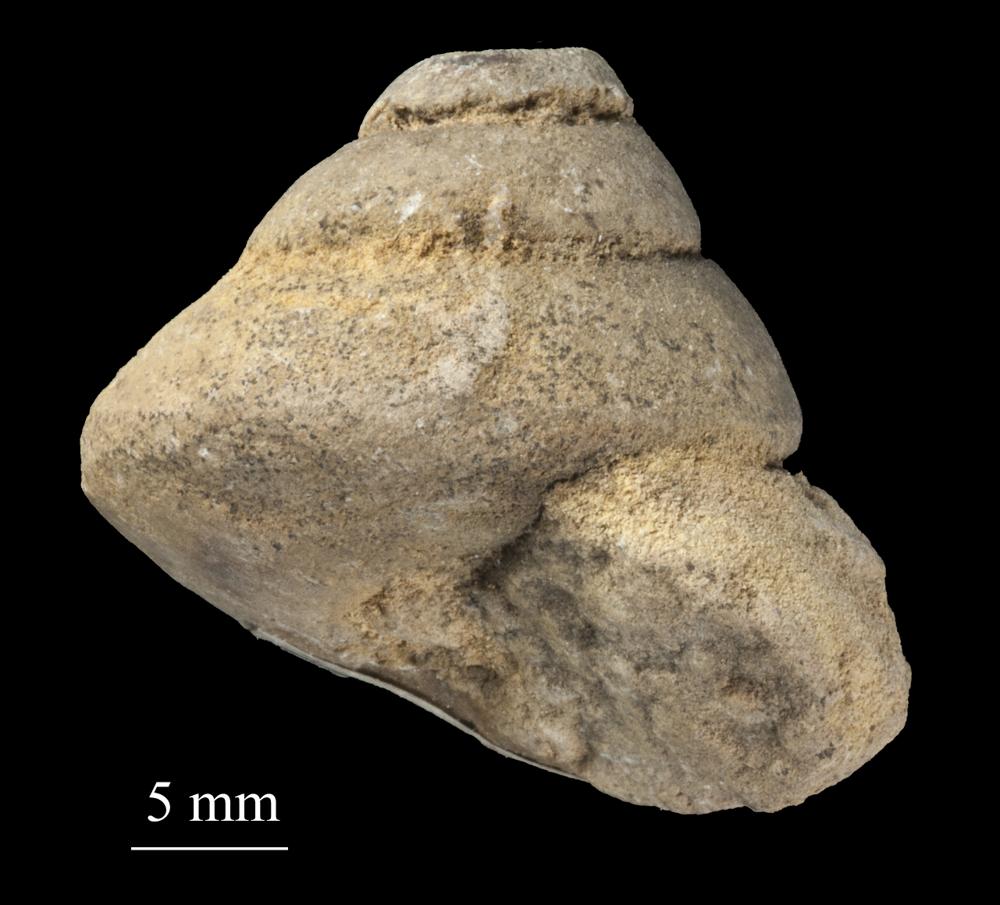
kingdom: Animalia
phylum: Mollusca
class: Gastropoda
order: Trochida
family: Trochidae
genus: Trochus
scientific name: Trochus ellipticus
